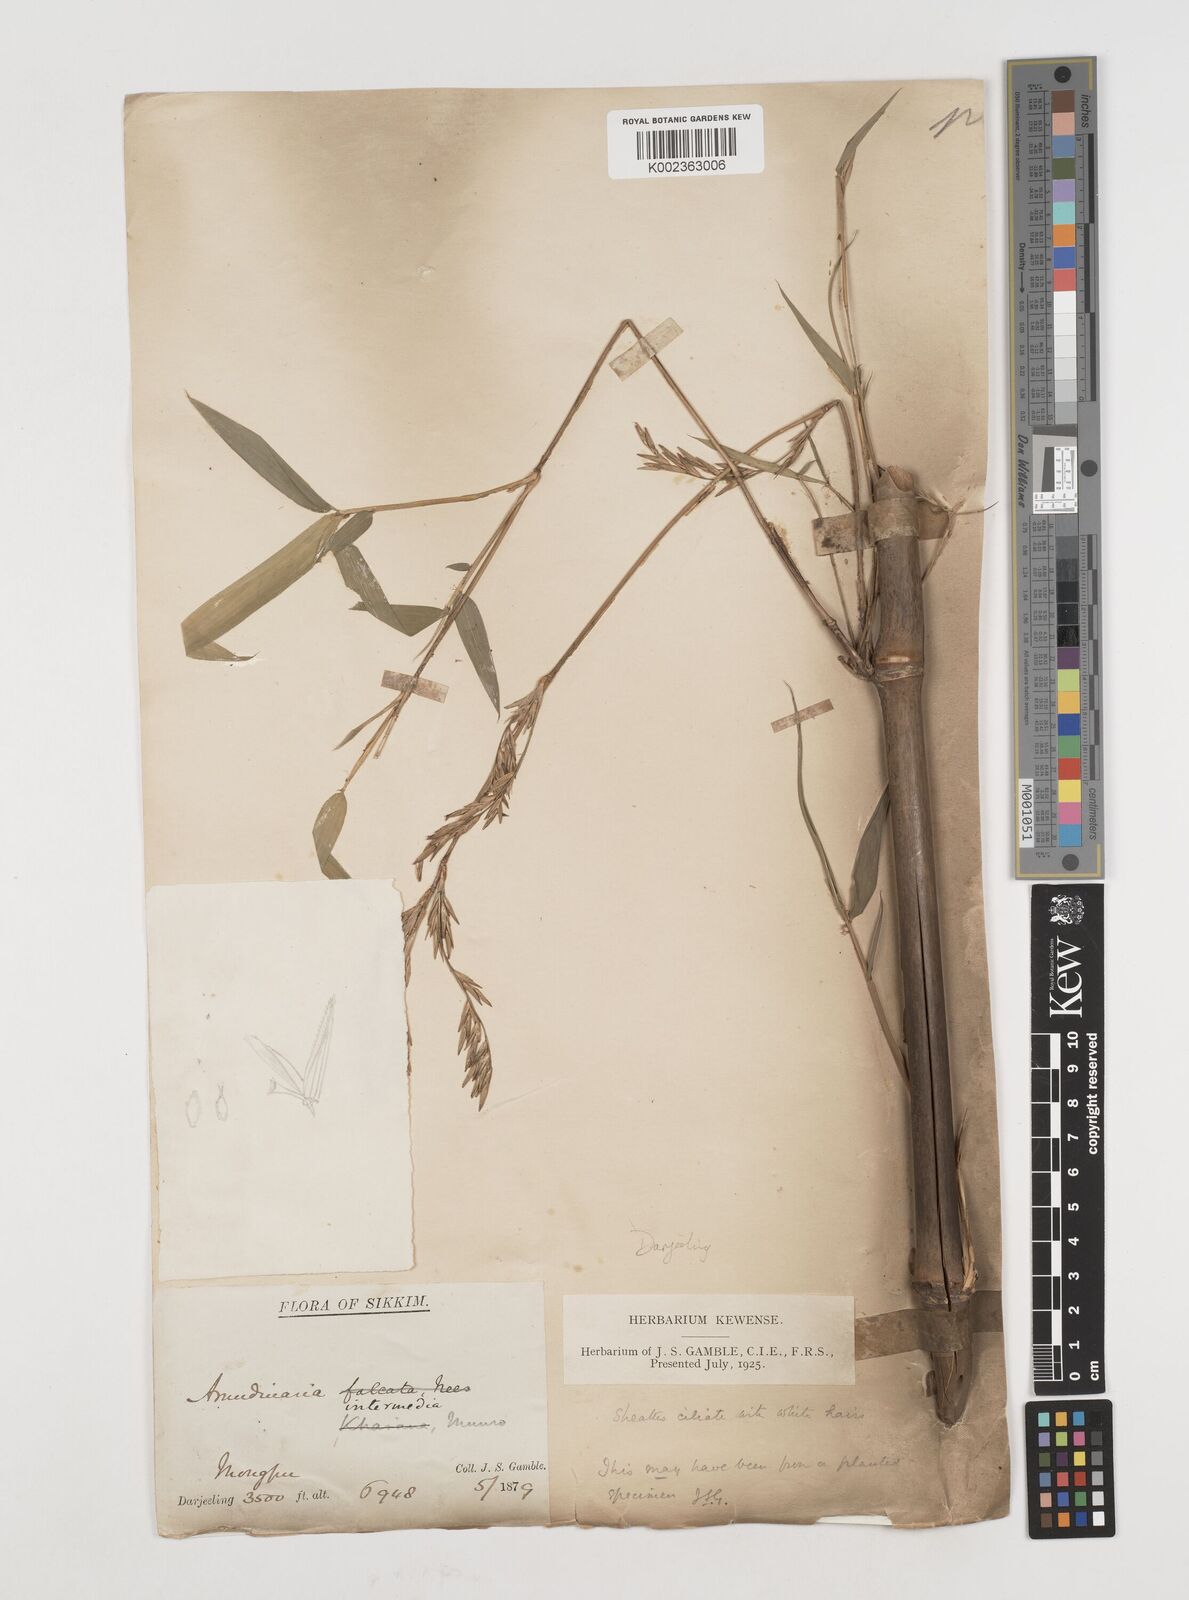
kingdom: Plantae
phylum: Tracheophyta
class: Liliopsida
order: Poales
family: Poaceae
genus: Drepanostachyum
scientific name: Drepanostachyum
